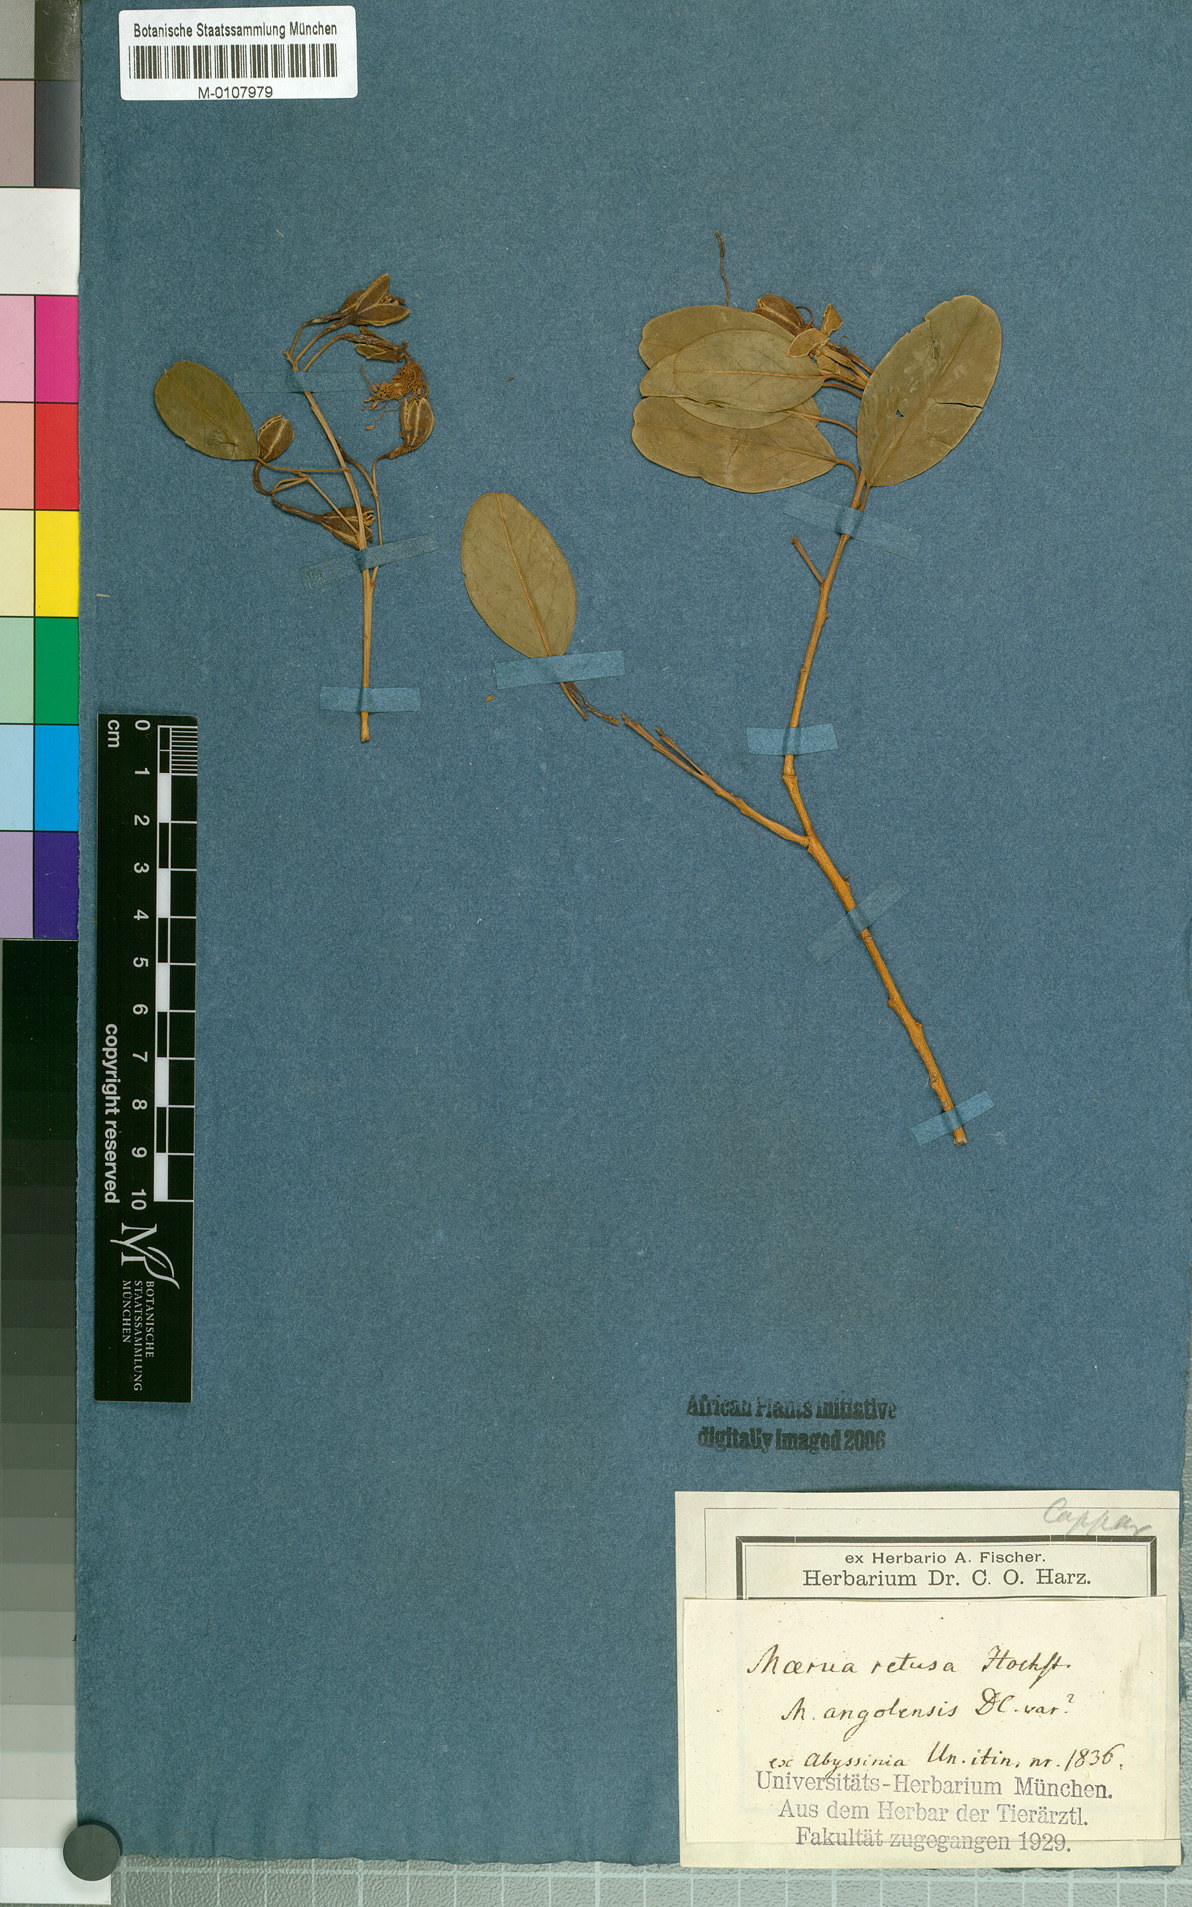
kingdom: Plantae
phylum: Tracheophyta
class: Magnoliopsida
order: Brassicales
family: Capparaceae
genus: Maerua
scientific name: Maerua angolensis
